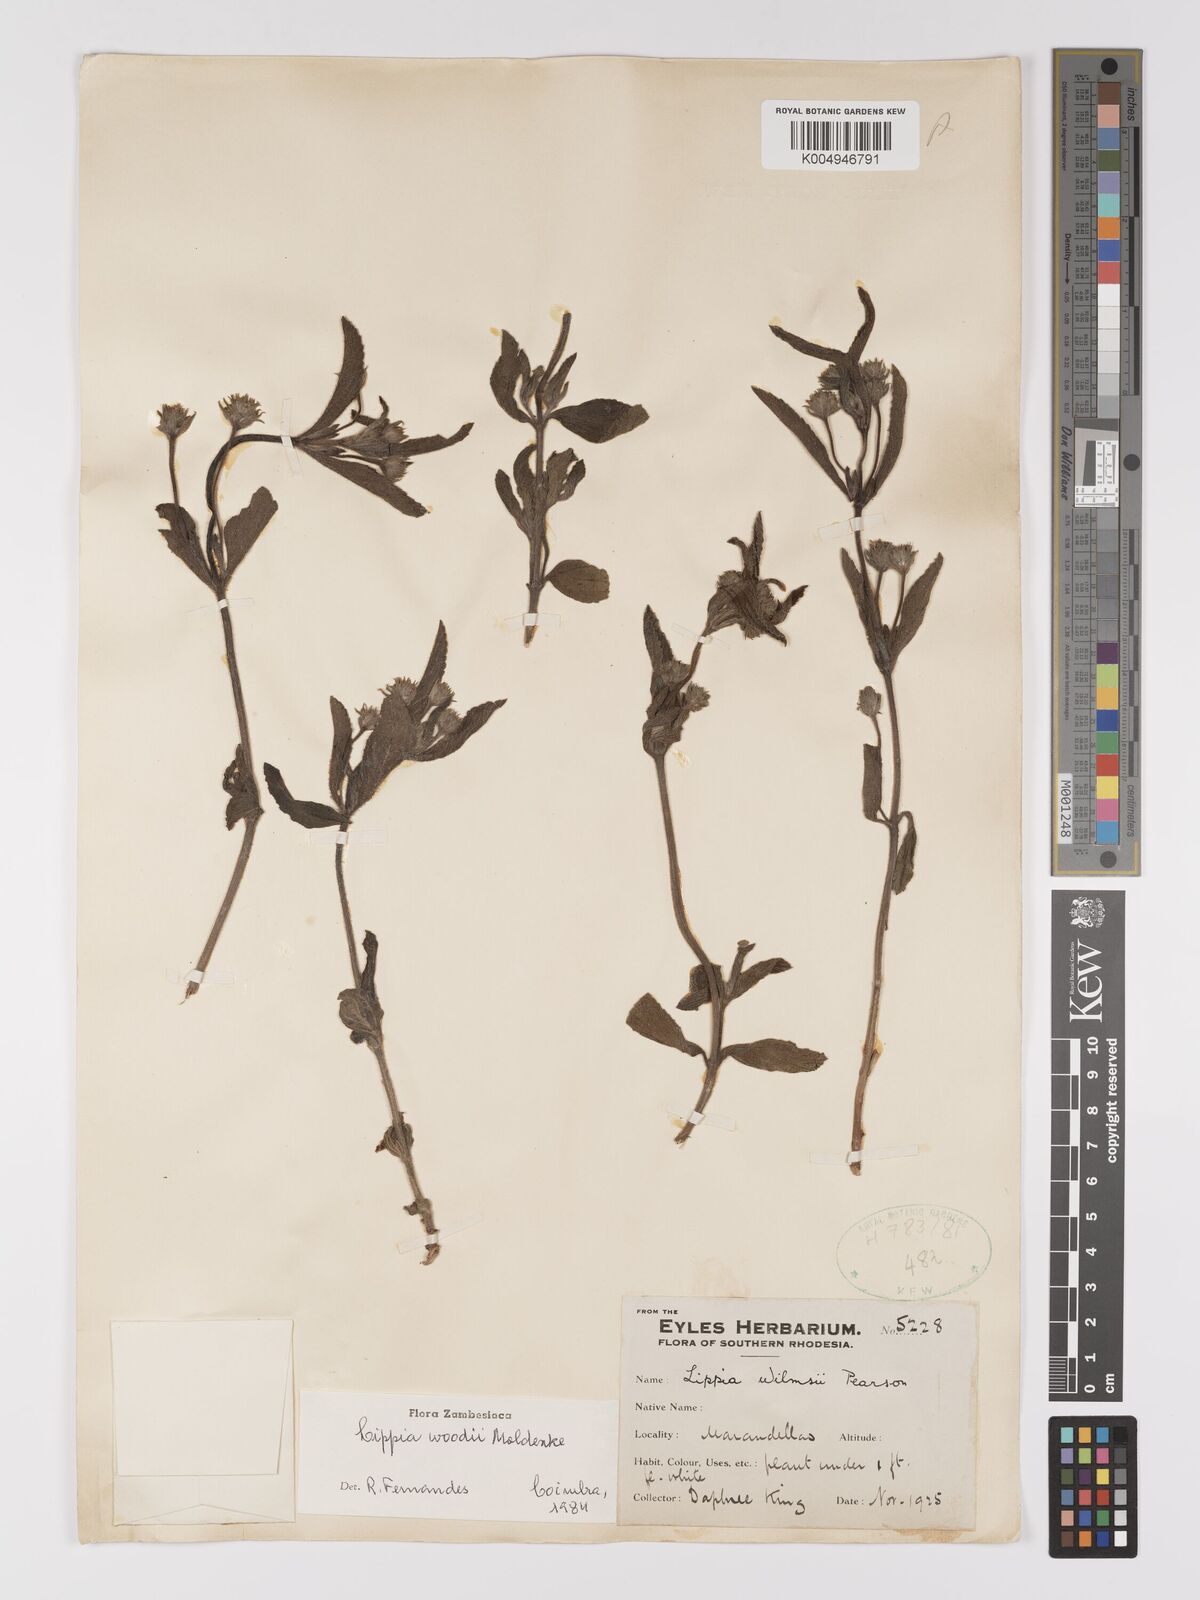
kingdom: Plantae
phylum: Tracheophyta
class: Magnoliopsida
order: Lamiales
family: Verbenaceae
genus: Lippia
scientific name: Lippia woodii
